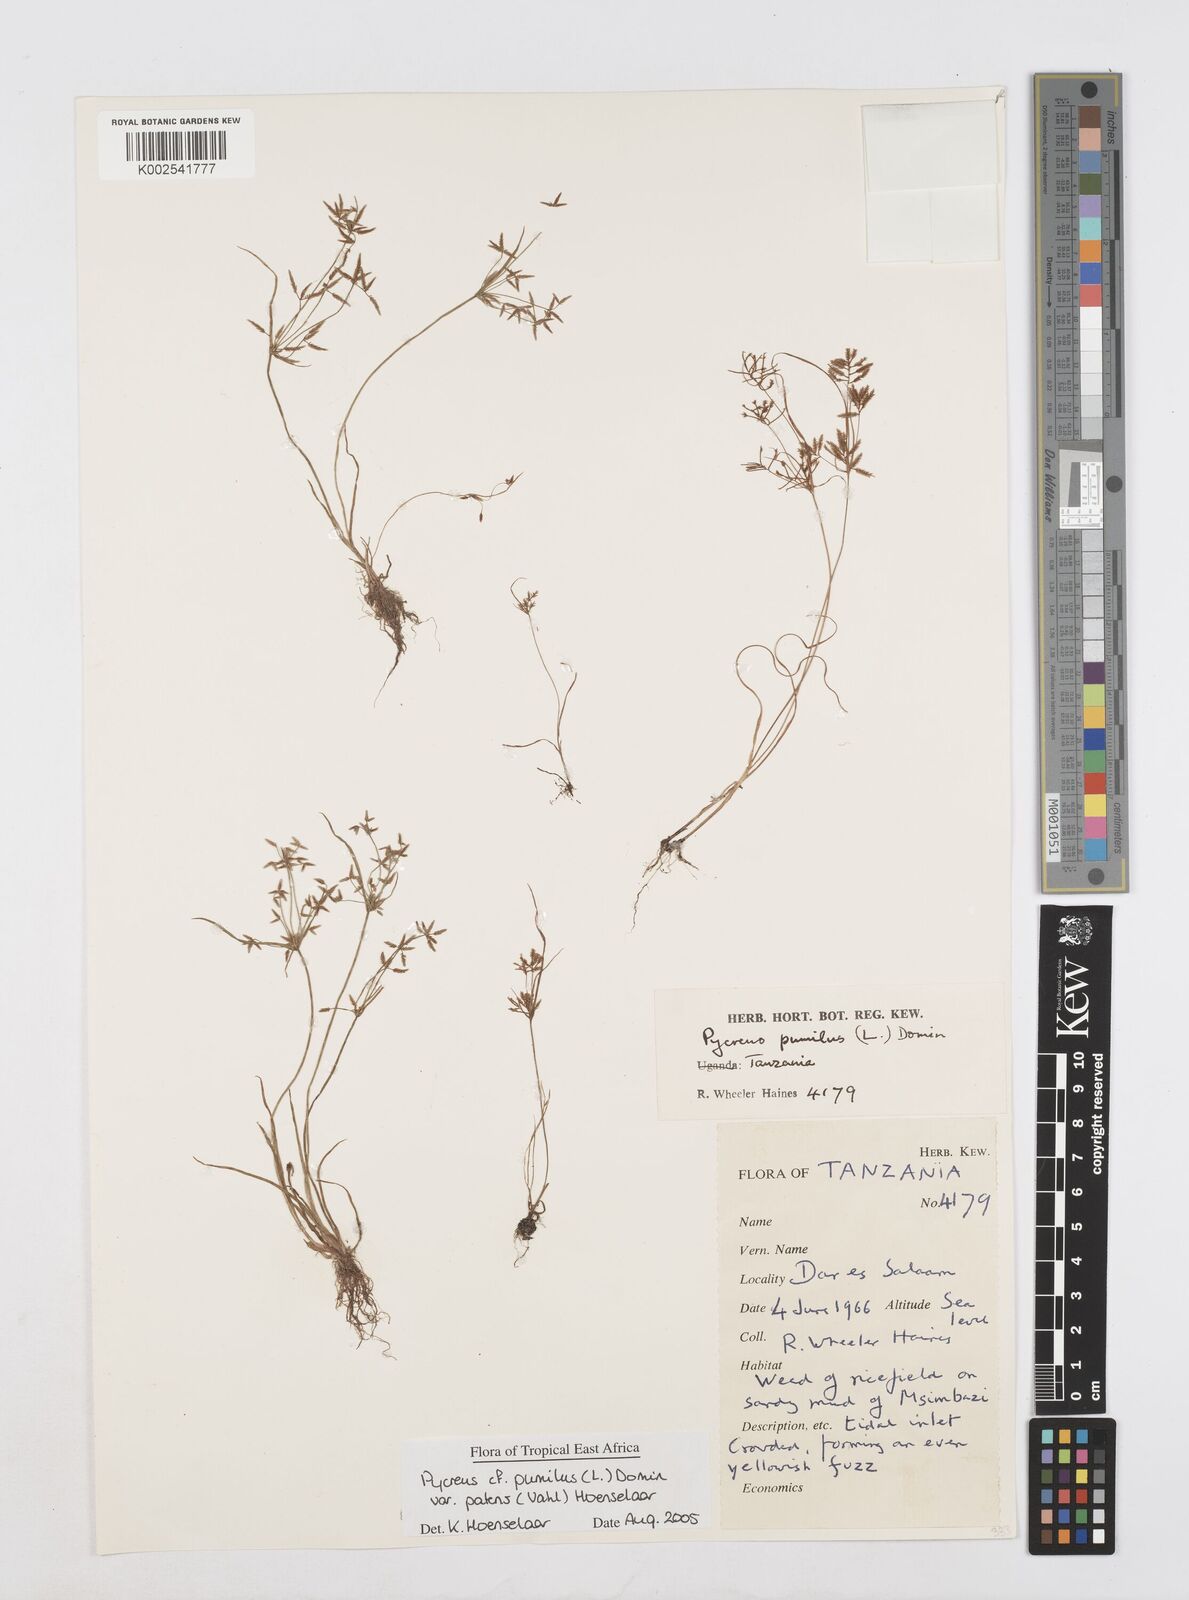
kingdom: Plantae
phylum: Tracheophyta
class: Liliopsida
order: Poales
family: Cyperaceae
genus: Cyperus
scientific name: Cyperus pumilus
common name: Low flatsedge
